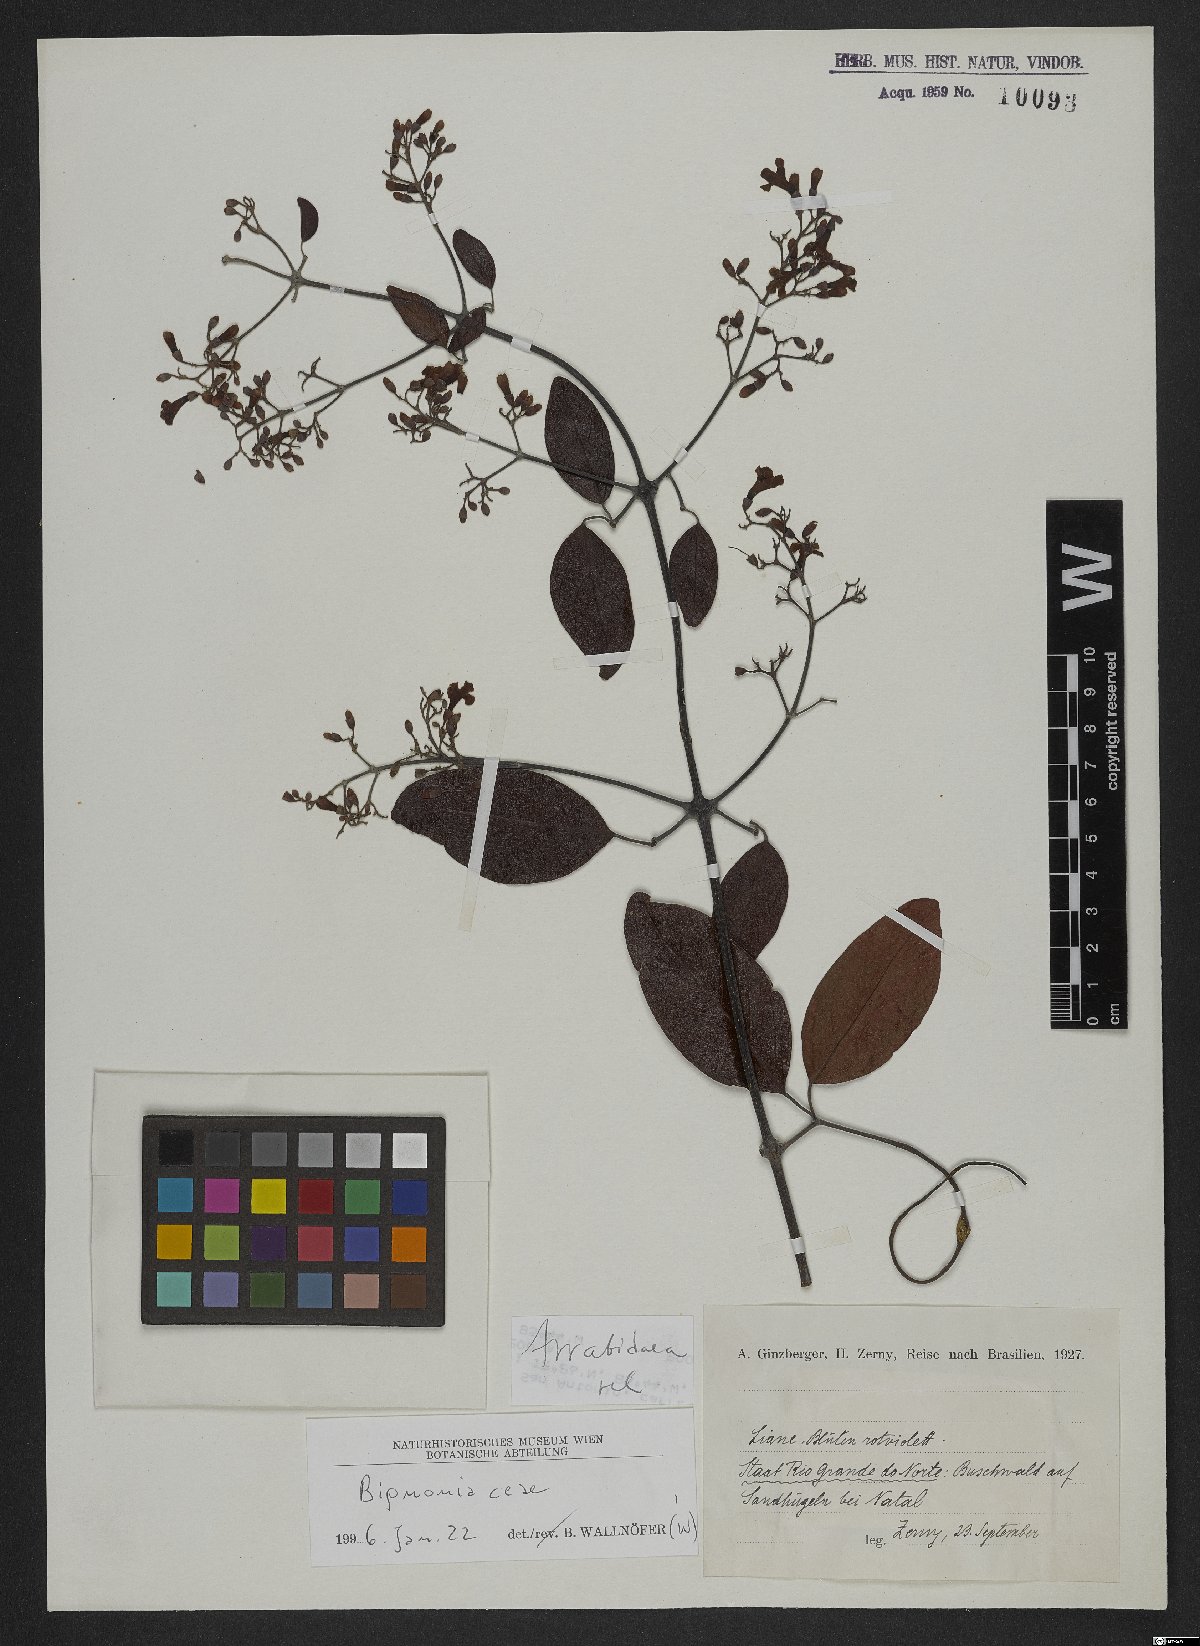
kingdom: Plantae
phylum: Tracheophyta
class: Magnoliopsida
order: Rosales
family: Rhamnaceae
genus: Arrabidaea
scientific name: Arrabidaea
